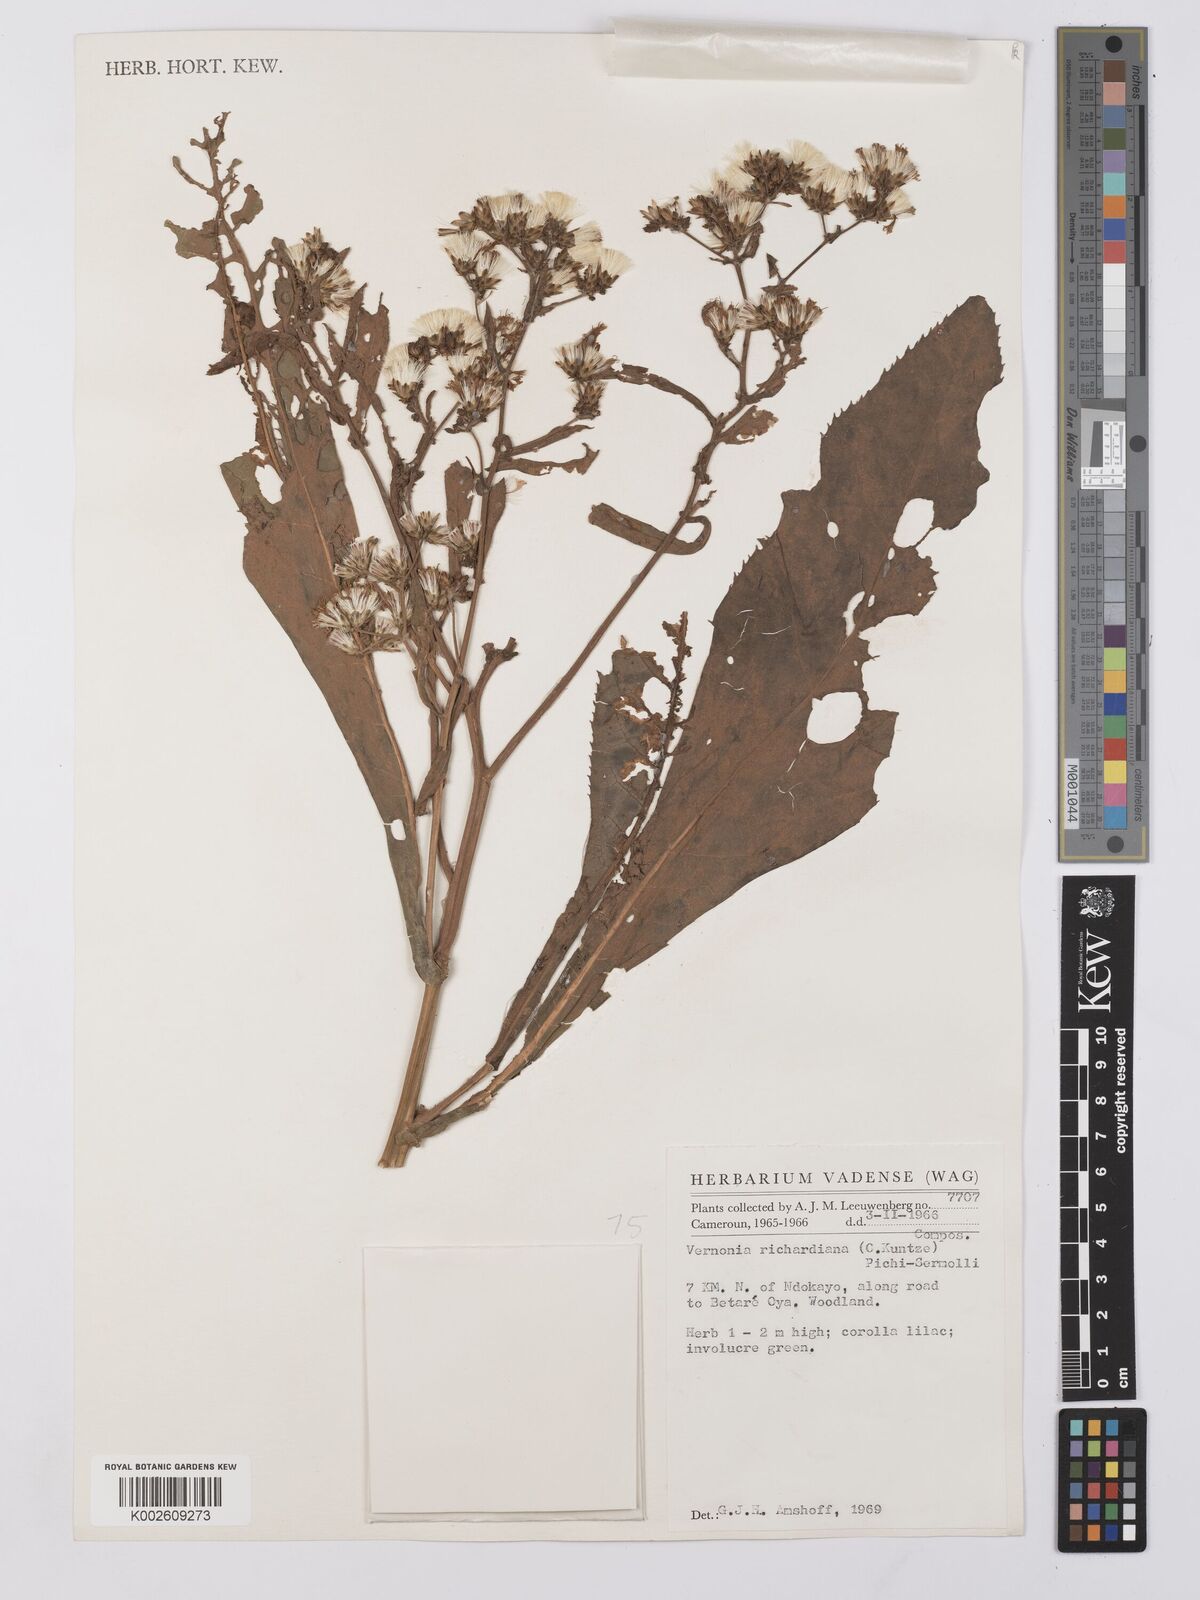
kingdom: Plantae
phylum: Tracheophyta
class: Magnoliopsida
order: Asterales
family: Asteraceae
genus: Gymnanthemum
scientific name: Gymnanthemum theophrastifolium
